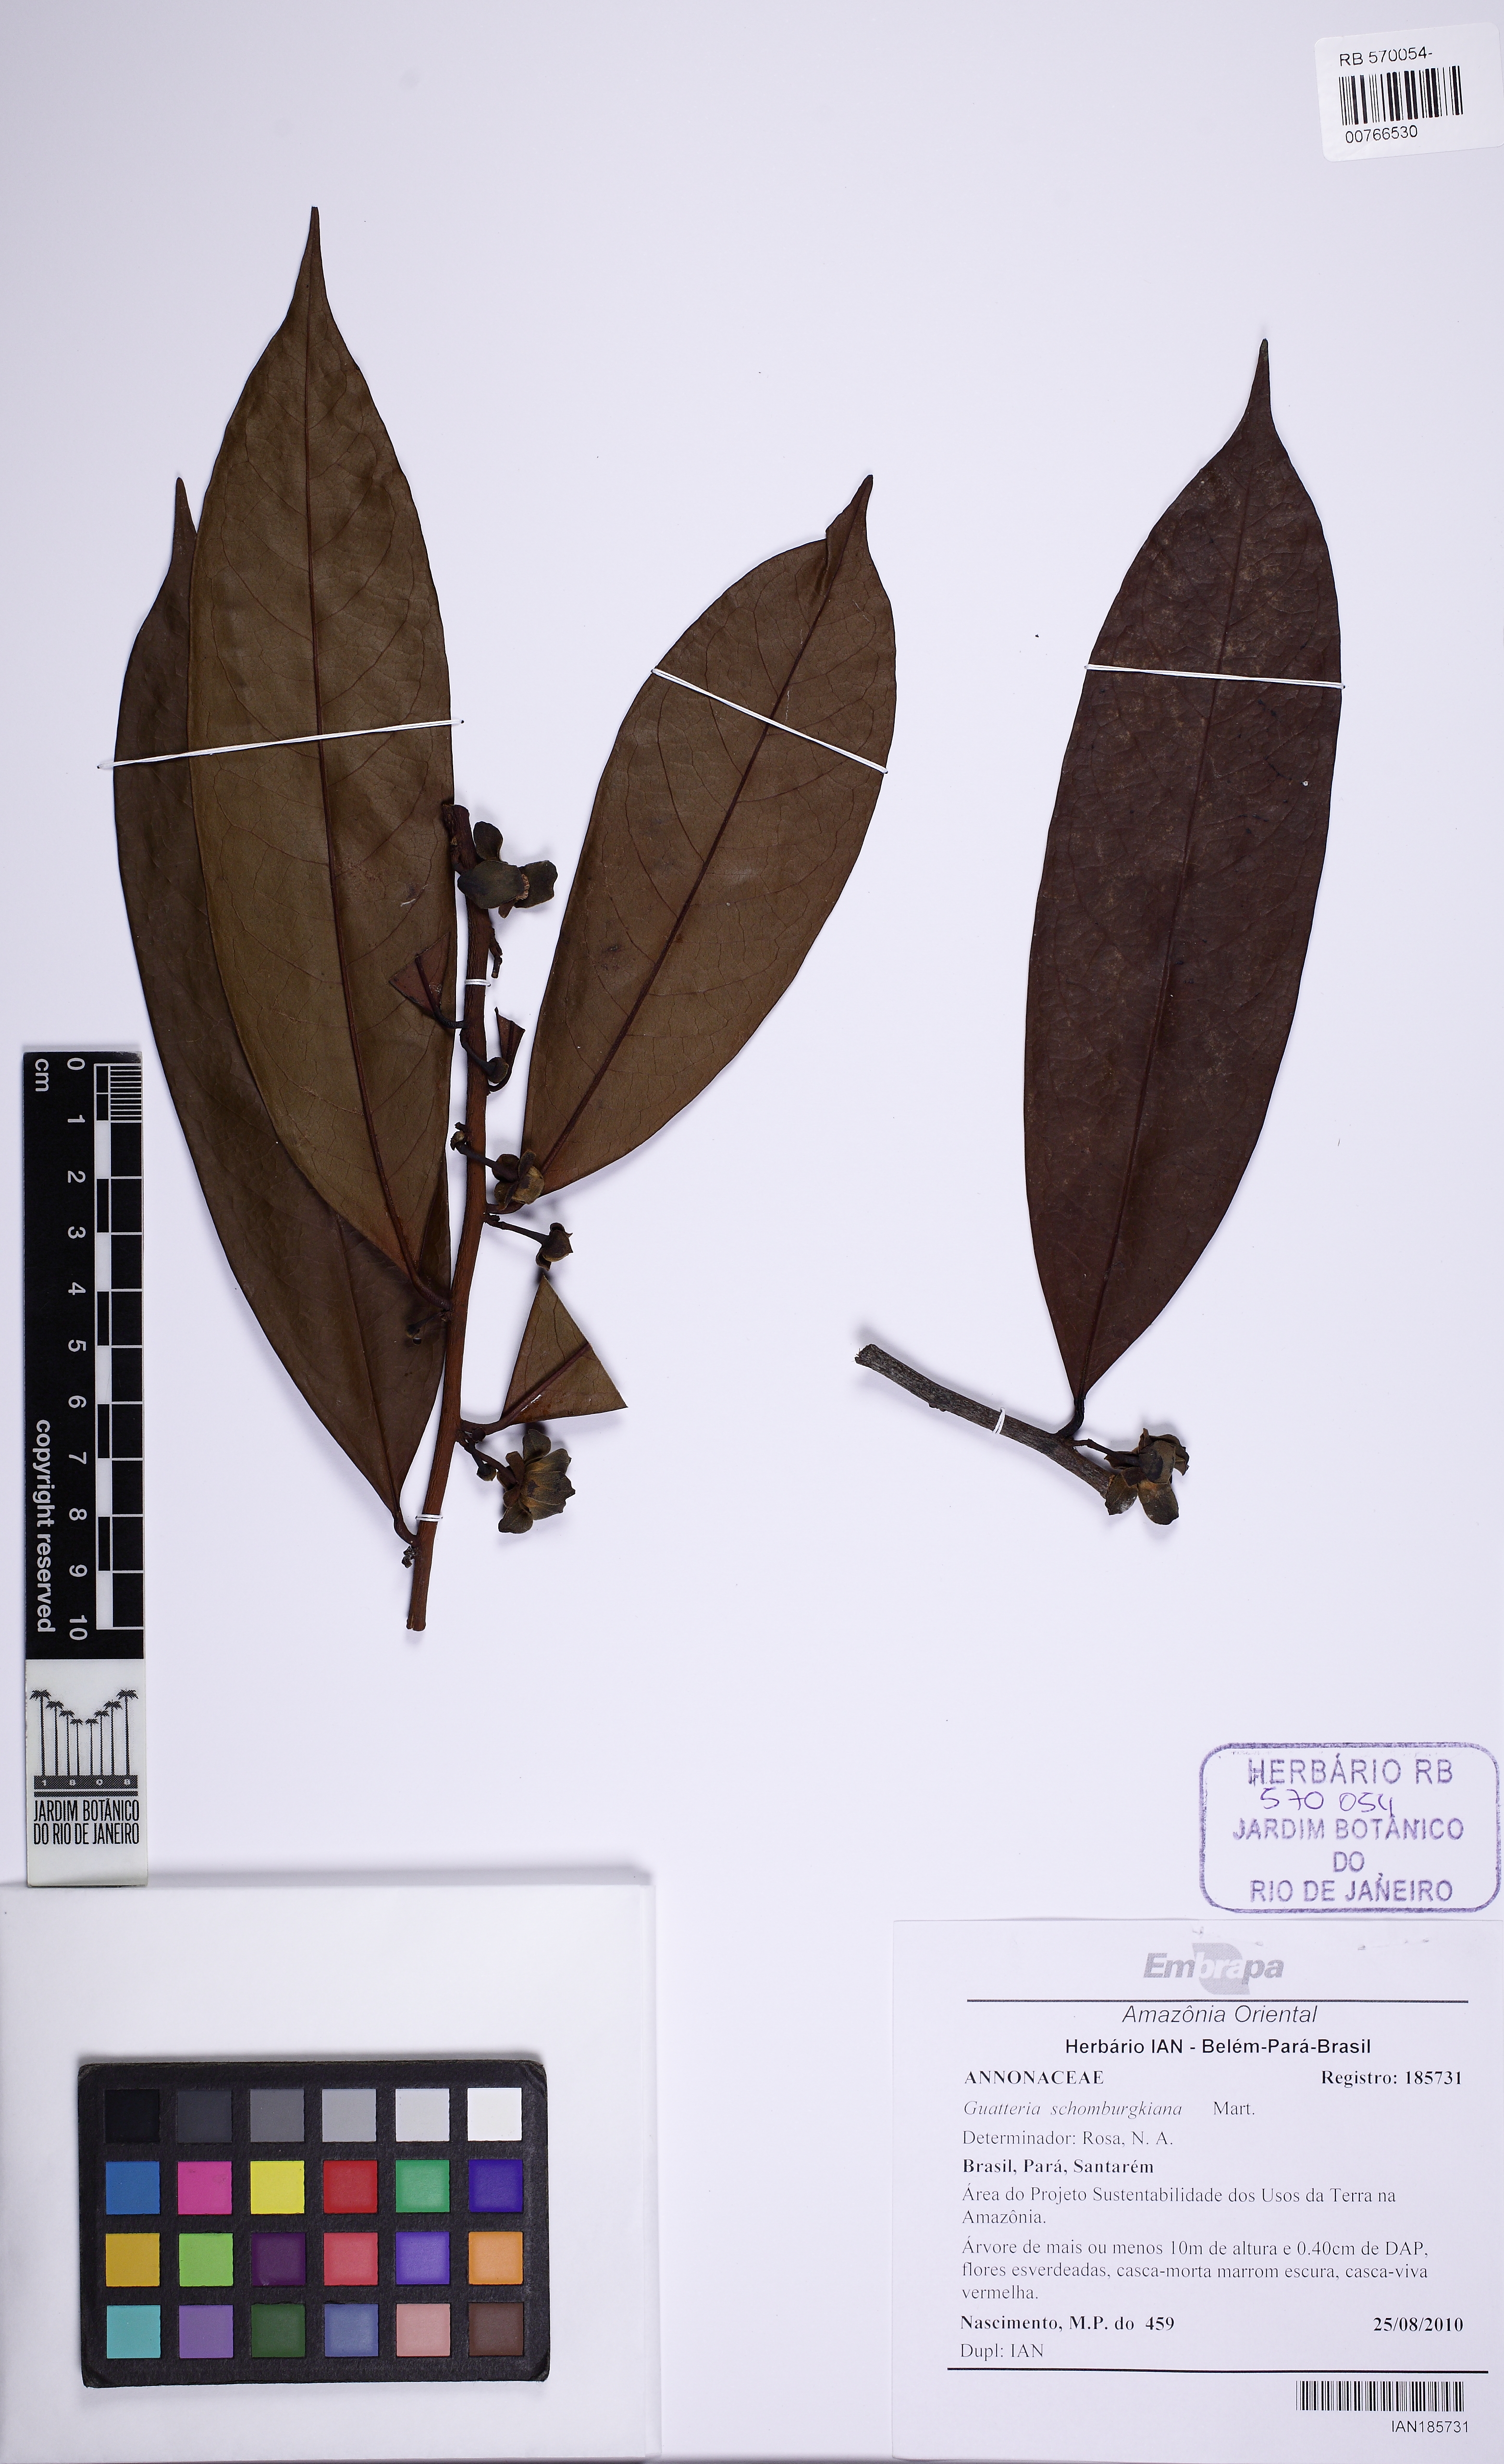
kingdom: Plantae
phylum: Tracheophyta
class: Magnoliopsida
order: Magnoliales
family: Annonaceae
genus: Guatteria
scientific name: Guatteria schomburgkiana
